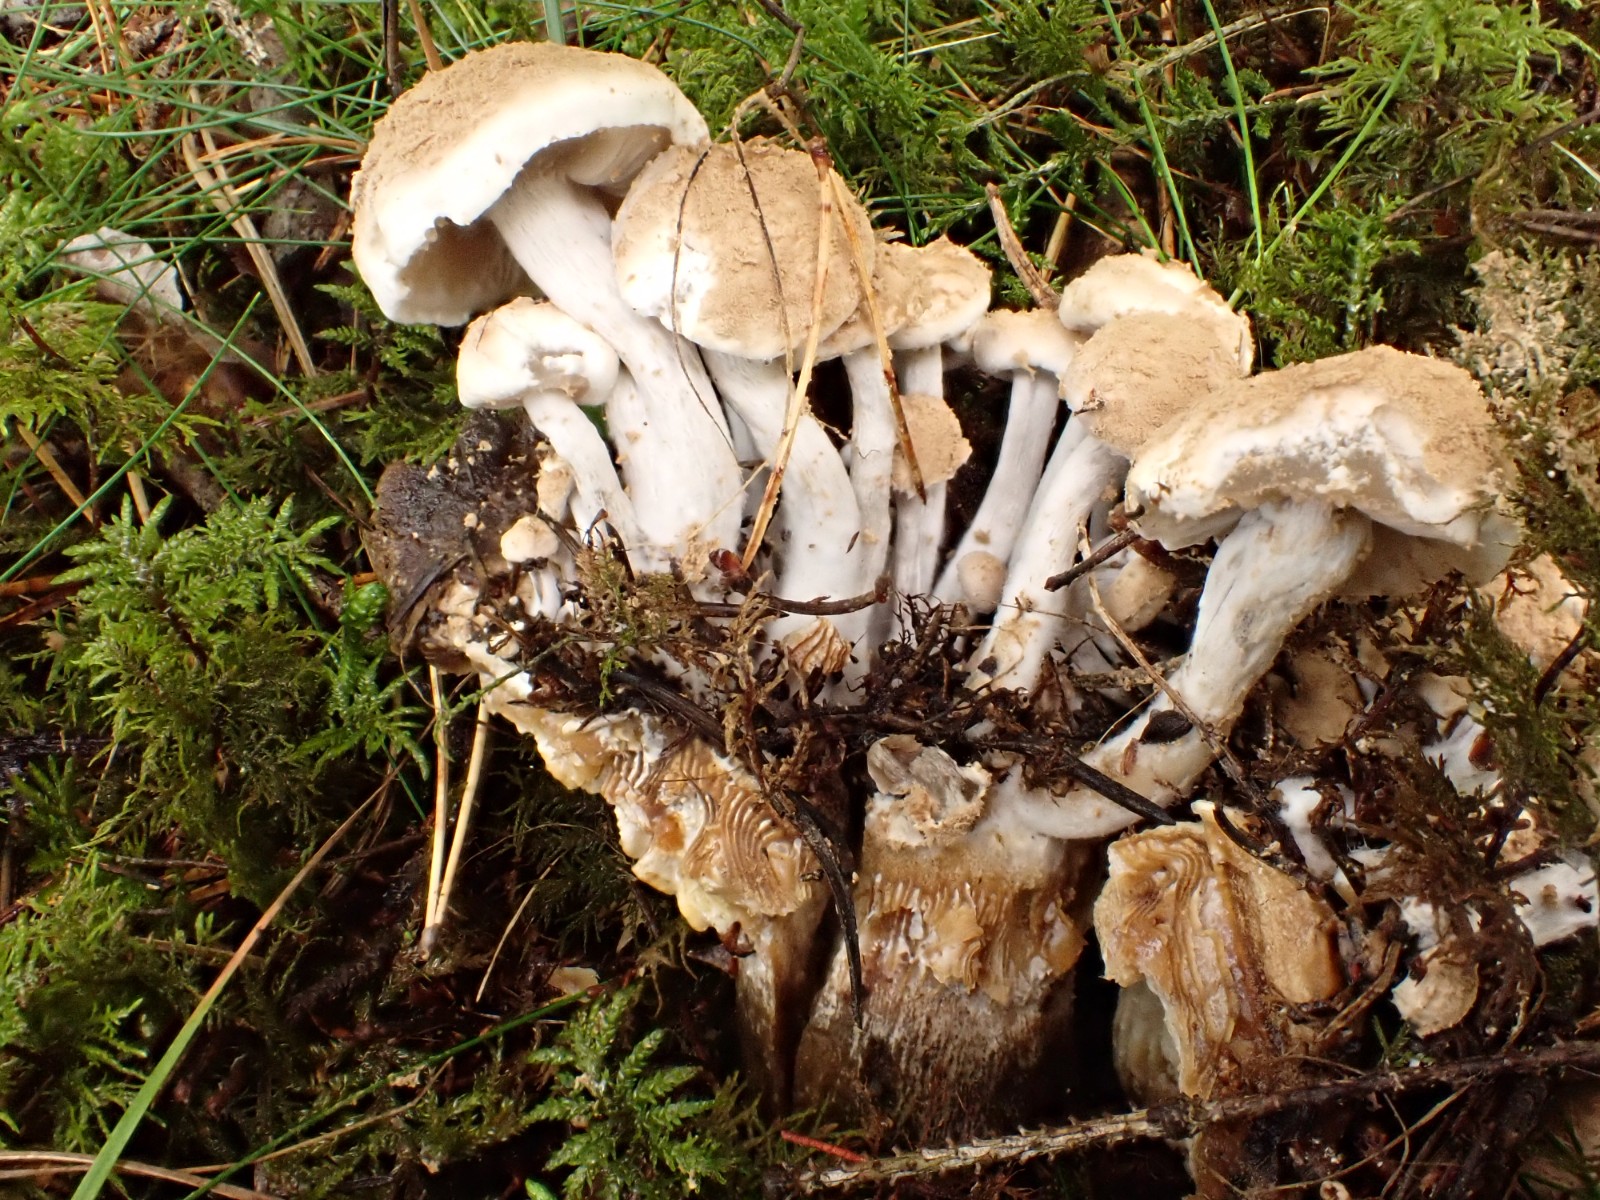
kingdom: Fungi
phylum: Basidiomycota
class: Agaricomycetes
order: Agaricales
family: Lyophyllaceae
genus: Asterophora
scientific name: Asterophora lycoperdoides
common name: brunpudret snyltehat
